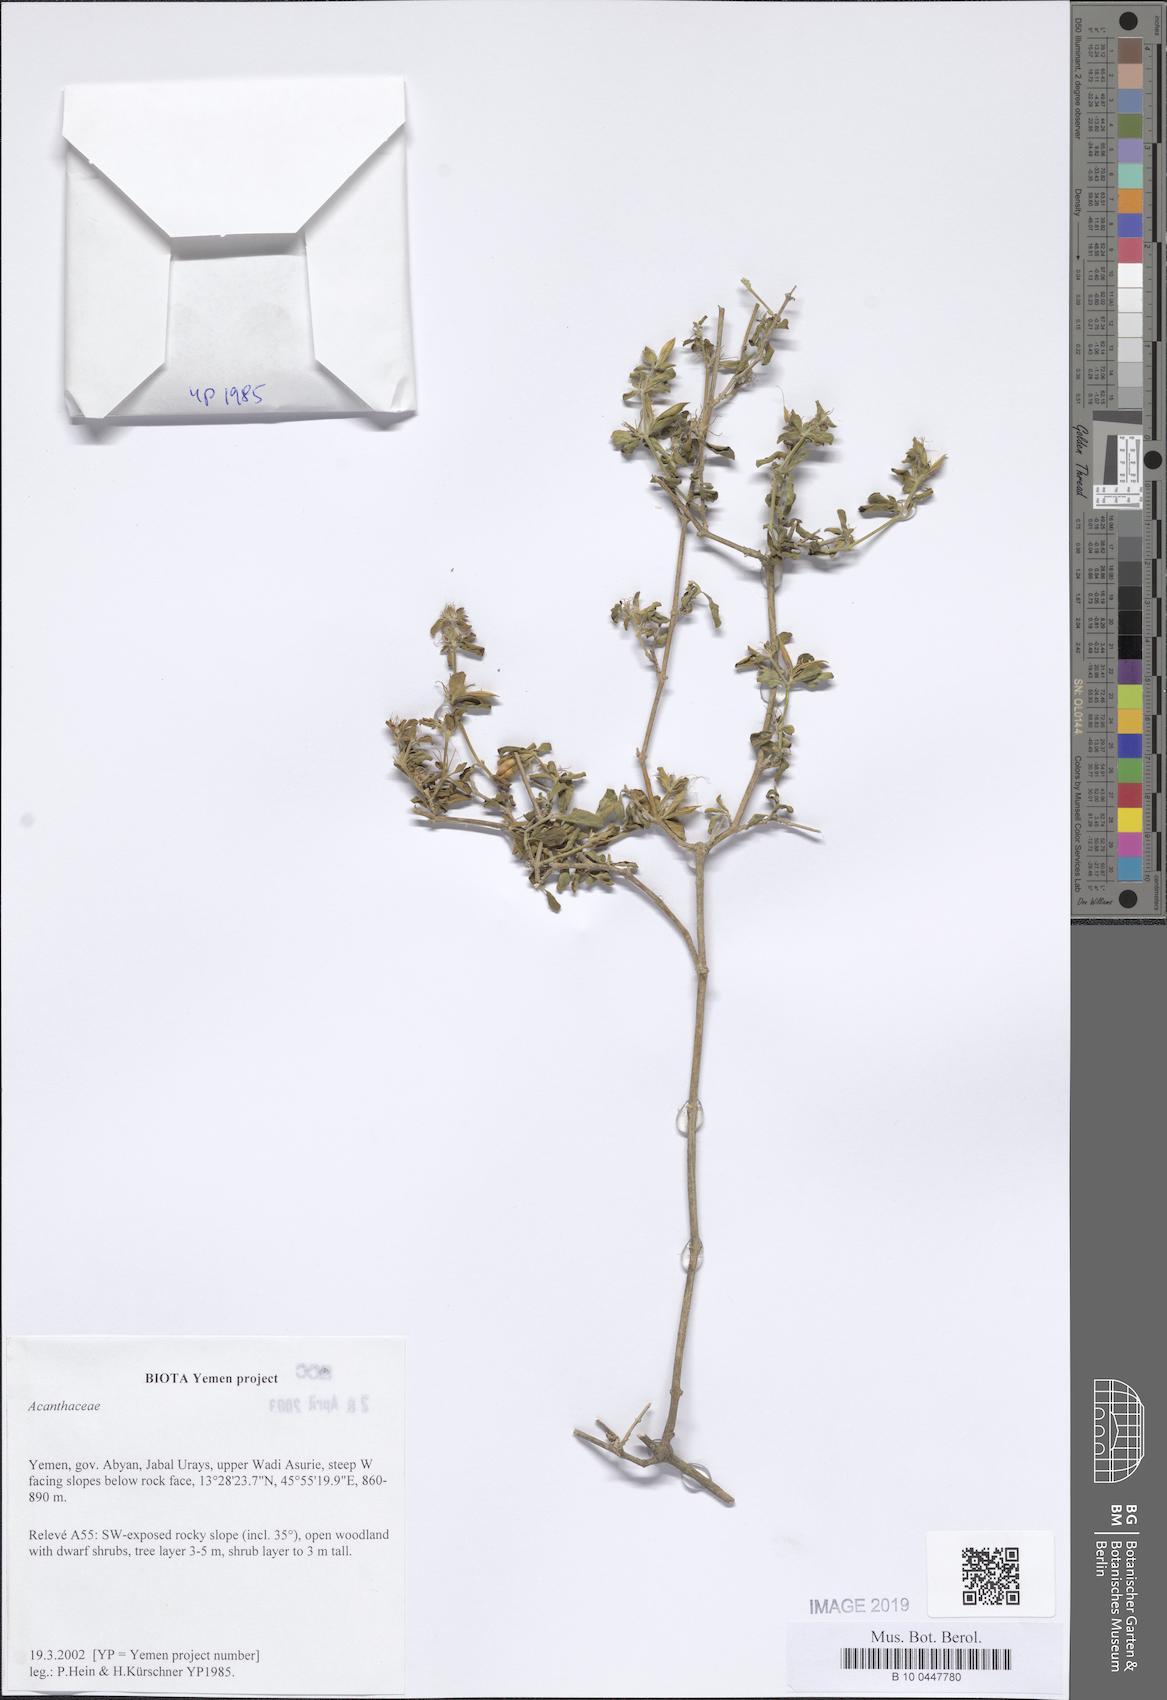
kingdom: Plantae
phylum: Tracheophyta
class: Magnoliopsida
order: Lamiales
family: Acanthaceae
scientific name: Acanthaceae
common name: Acanthaceae
